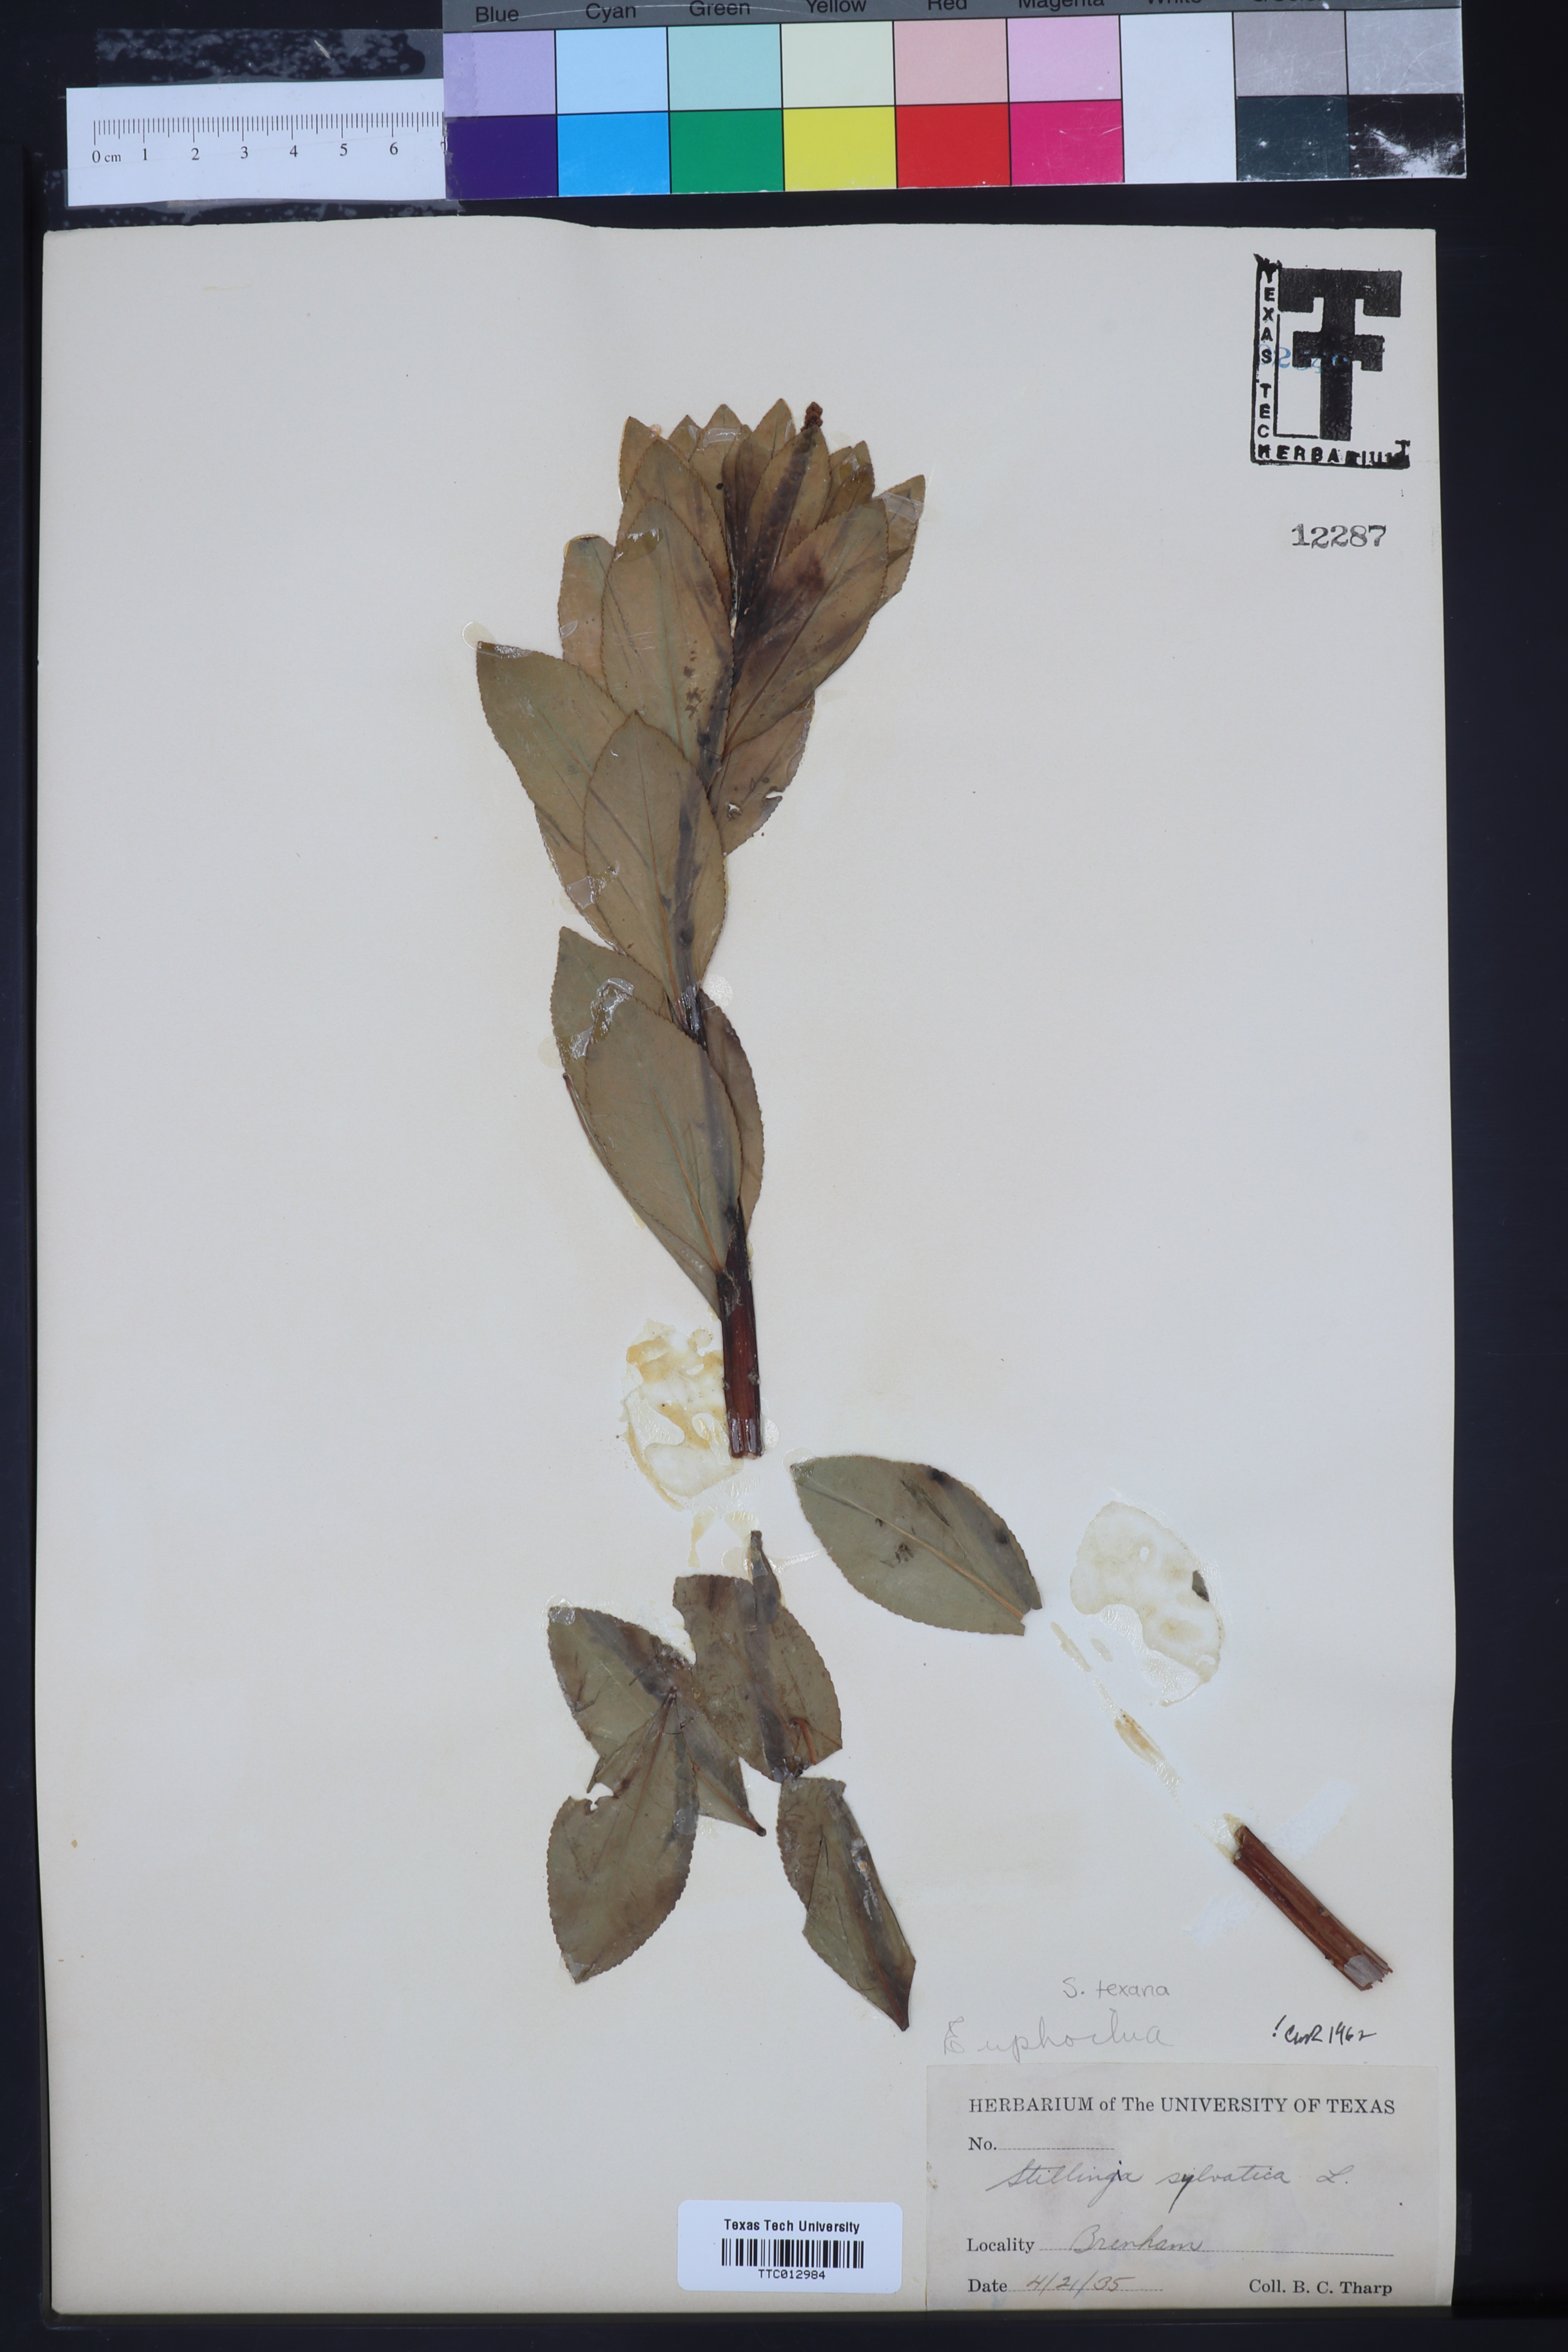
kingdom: Plantae
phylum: Tracheophyta
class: Magnoliopsida
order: Malpighiales
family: Euphorbiaceae
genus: Stillingia
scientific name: Stillingia sylvatica
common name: Queen's-delight
